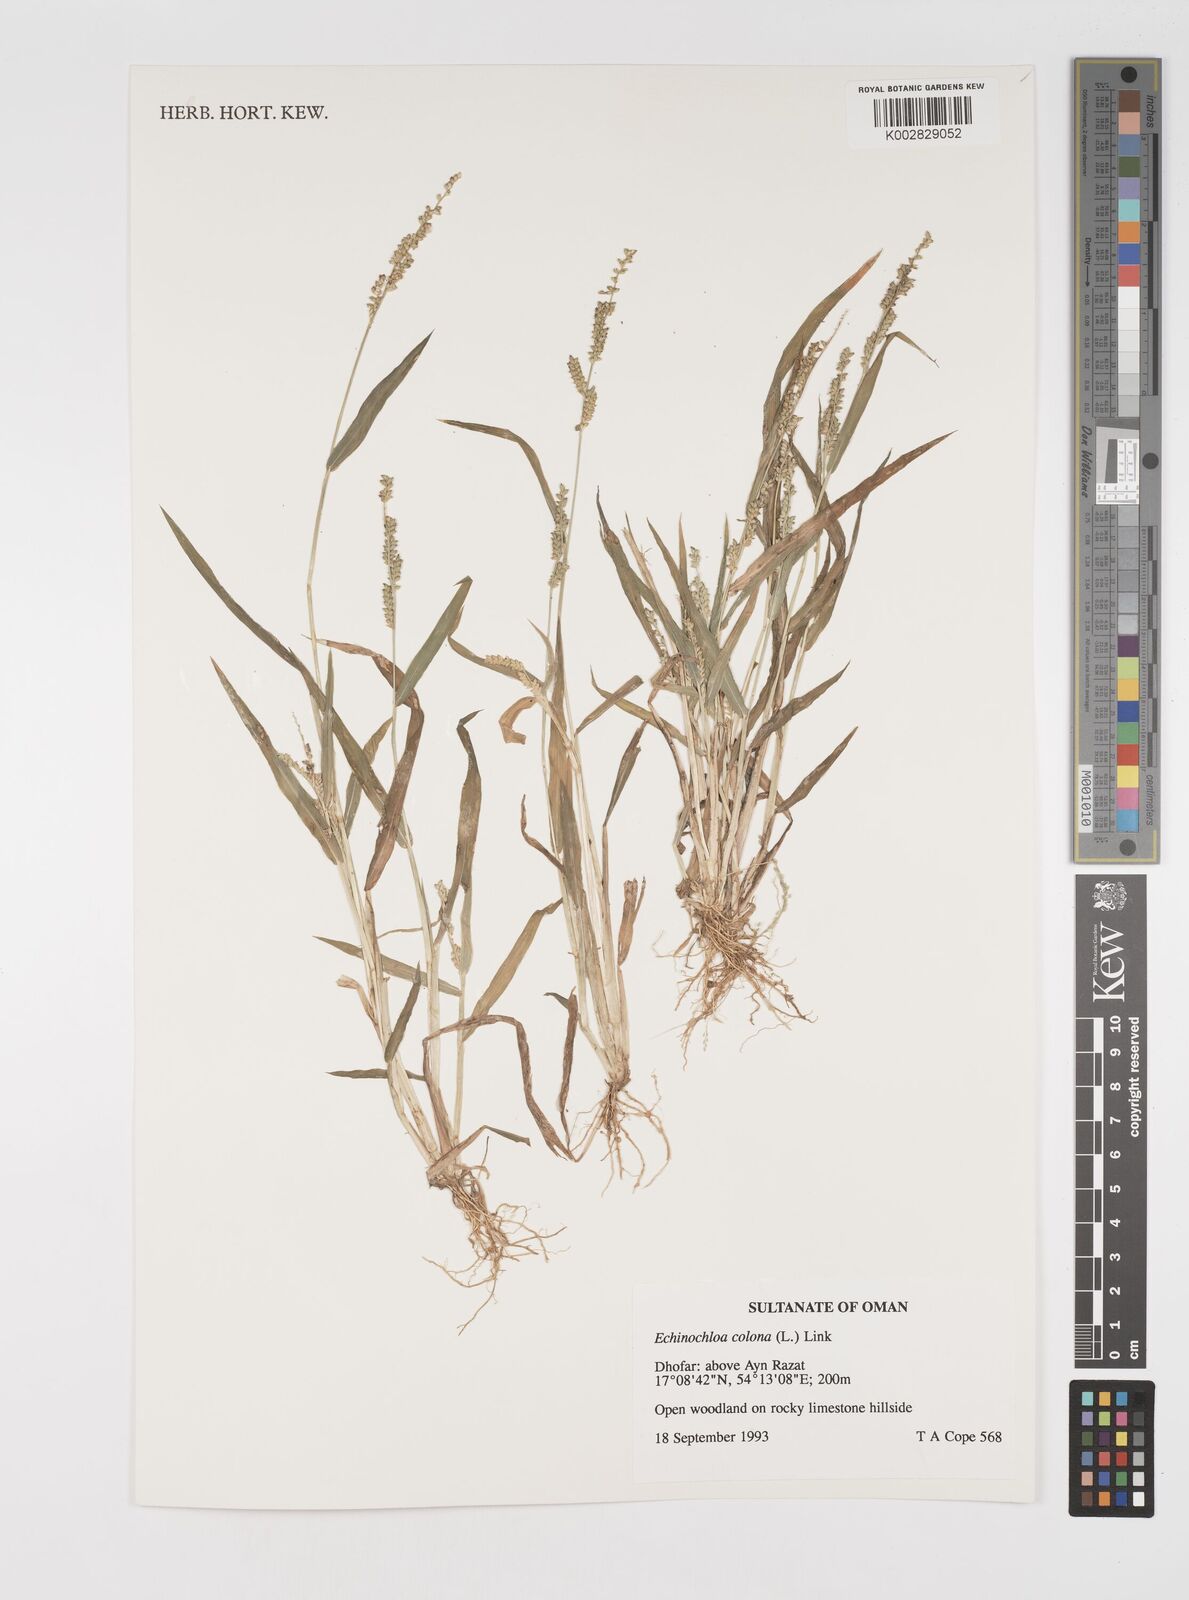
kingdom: Plantae
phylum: Tracheophyta
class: Liliopsida
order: Poales
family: Poaceae
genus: Echinochloa
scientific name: Echinochloa colonum
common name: Jungle rice
